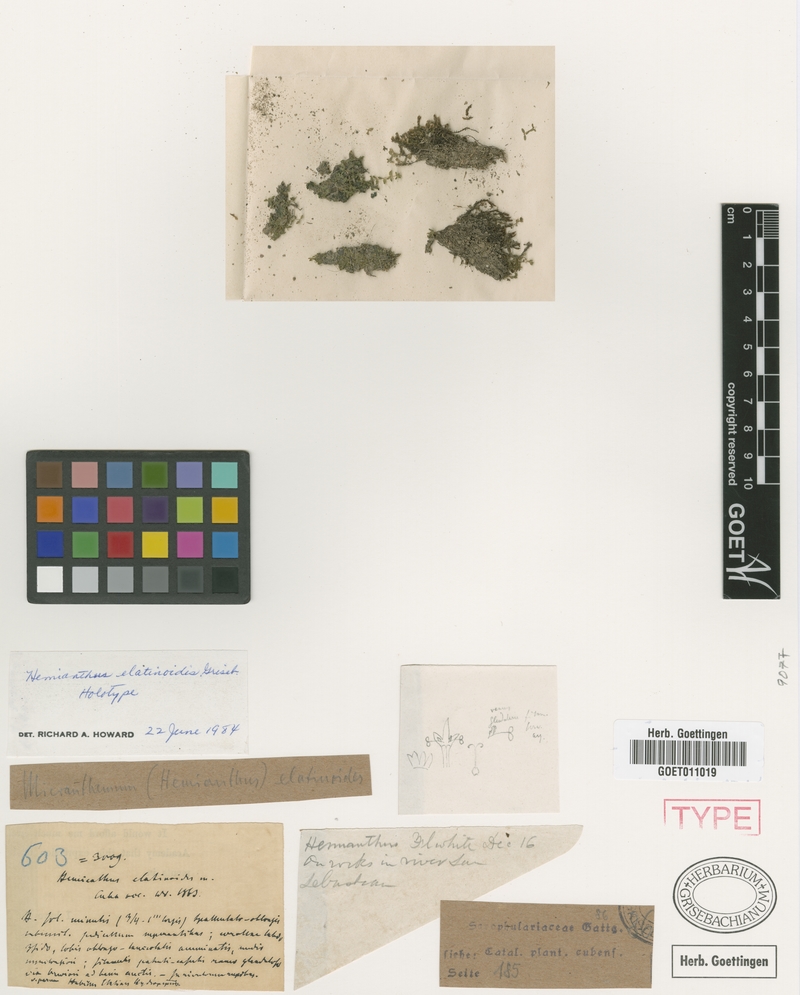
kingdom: Plantae
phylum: Tracheophyta
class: Magnoliopsida
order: Lamiales
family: Linderniaceae
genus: Micranthemum
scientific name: Micranthemum callitrichoides
